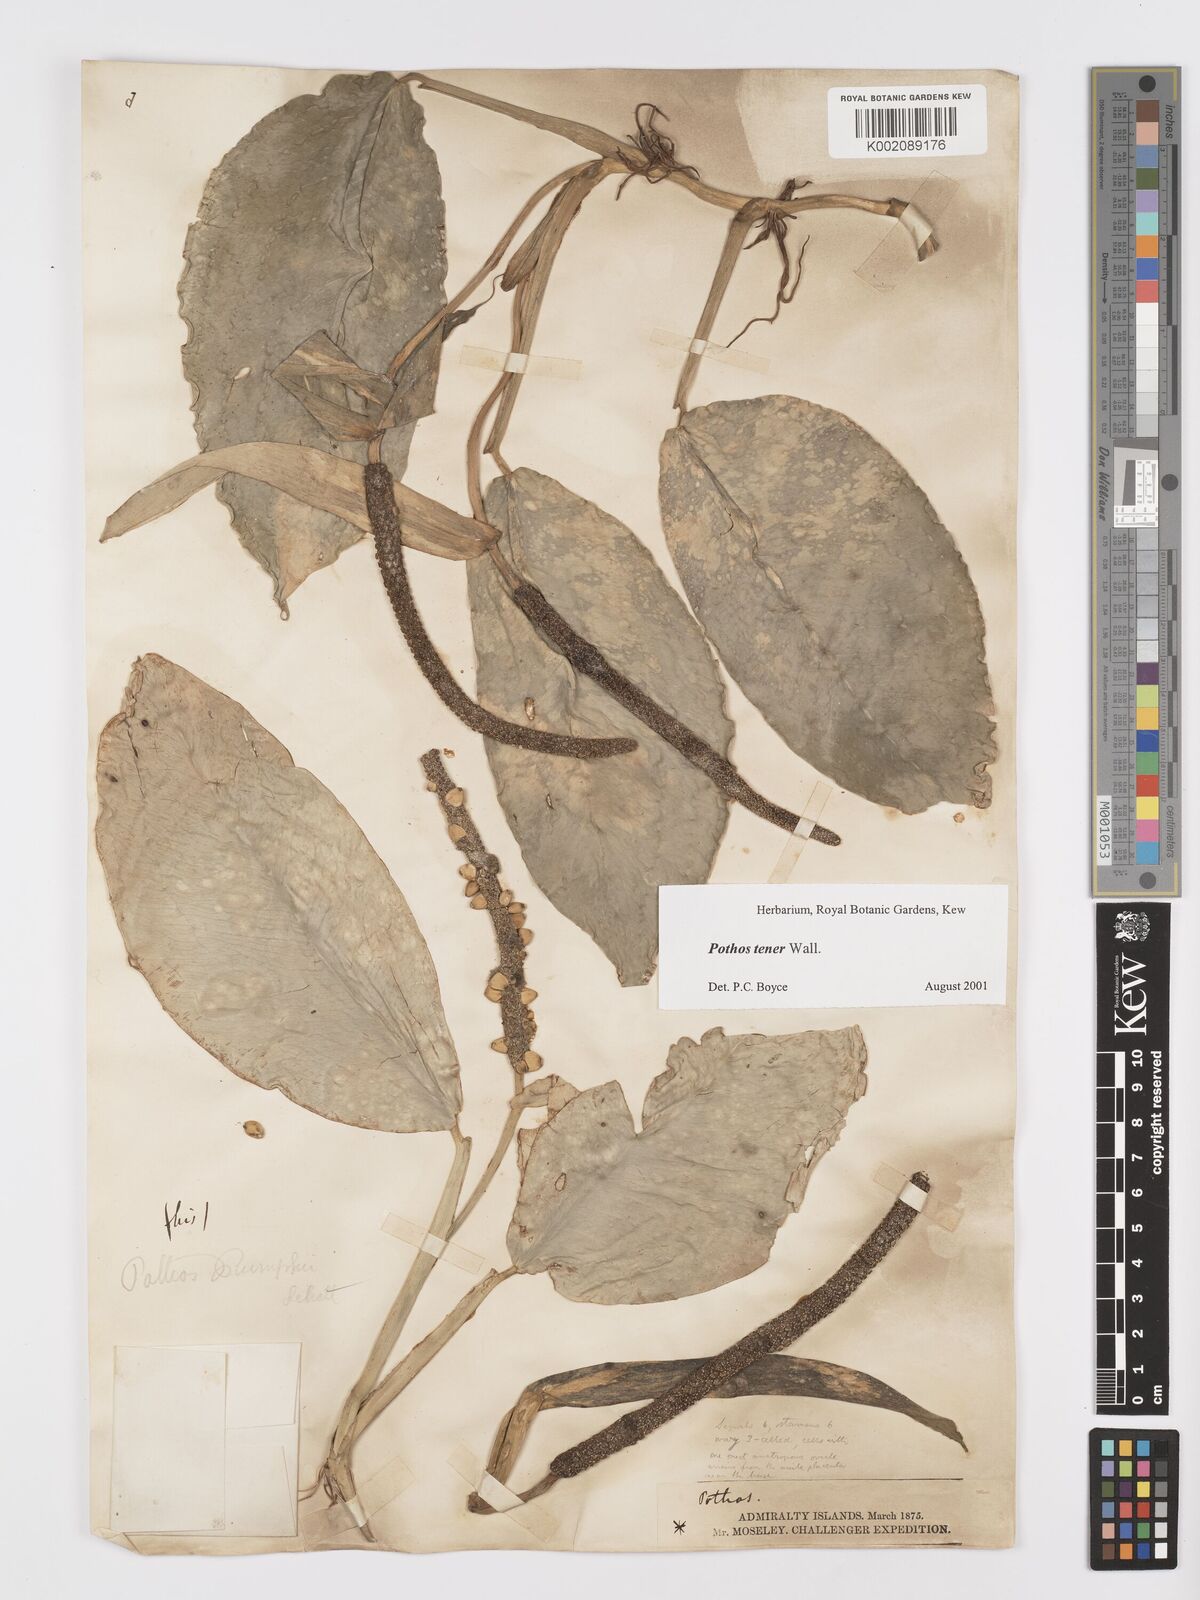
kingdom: Plantae
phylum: Tracheophyta
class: Liliopsida
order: Alismatales
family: Araceae
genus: Pothos
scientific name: Pothos tener
